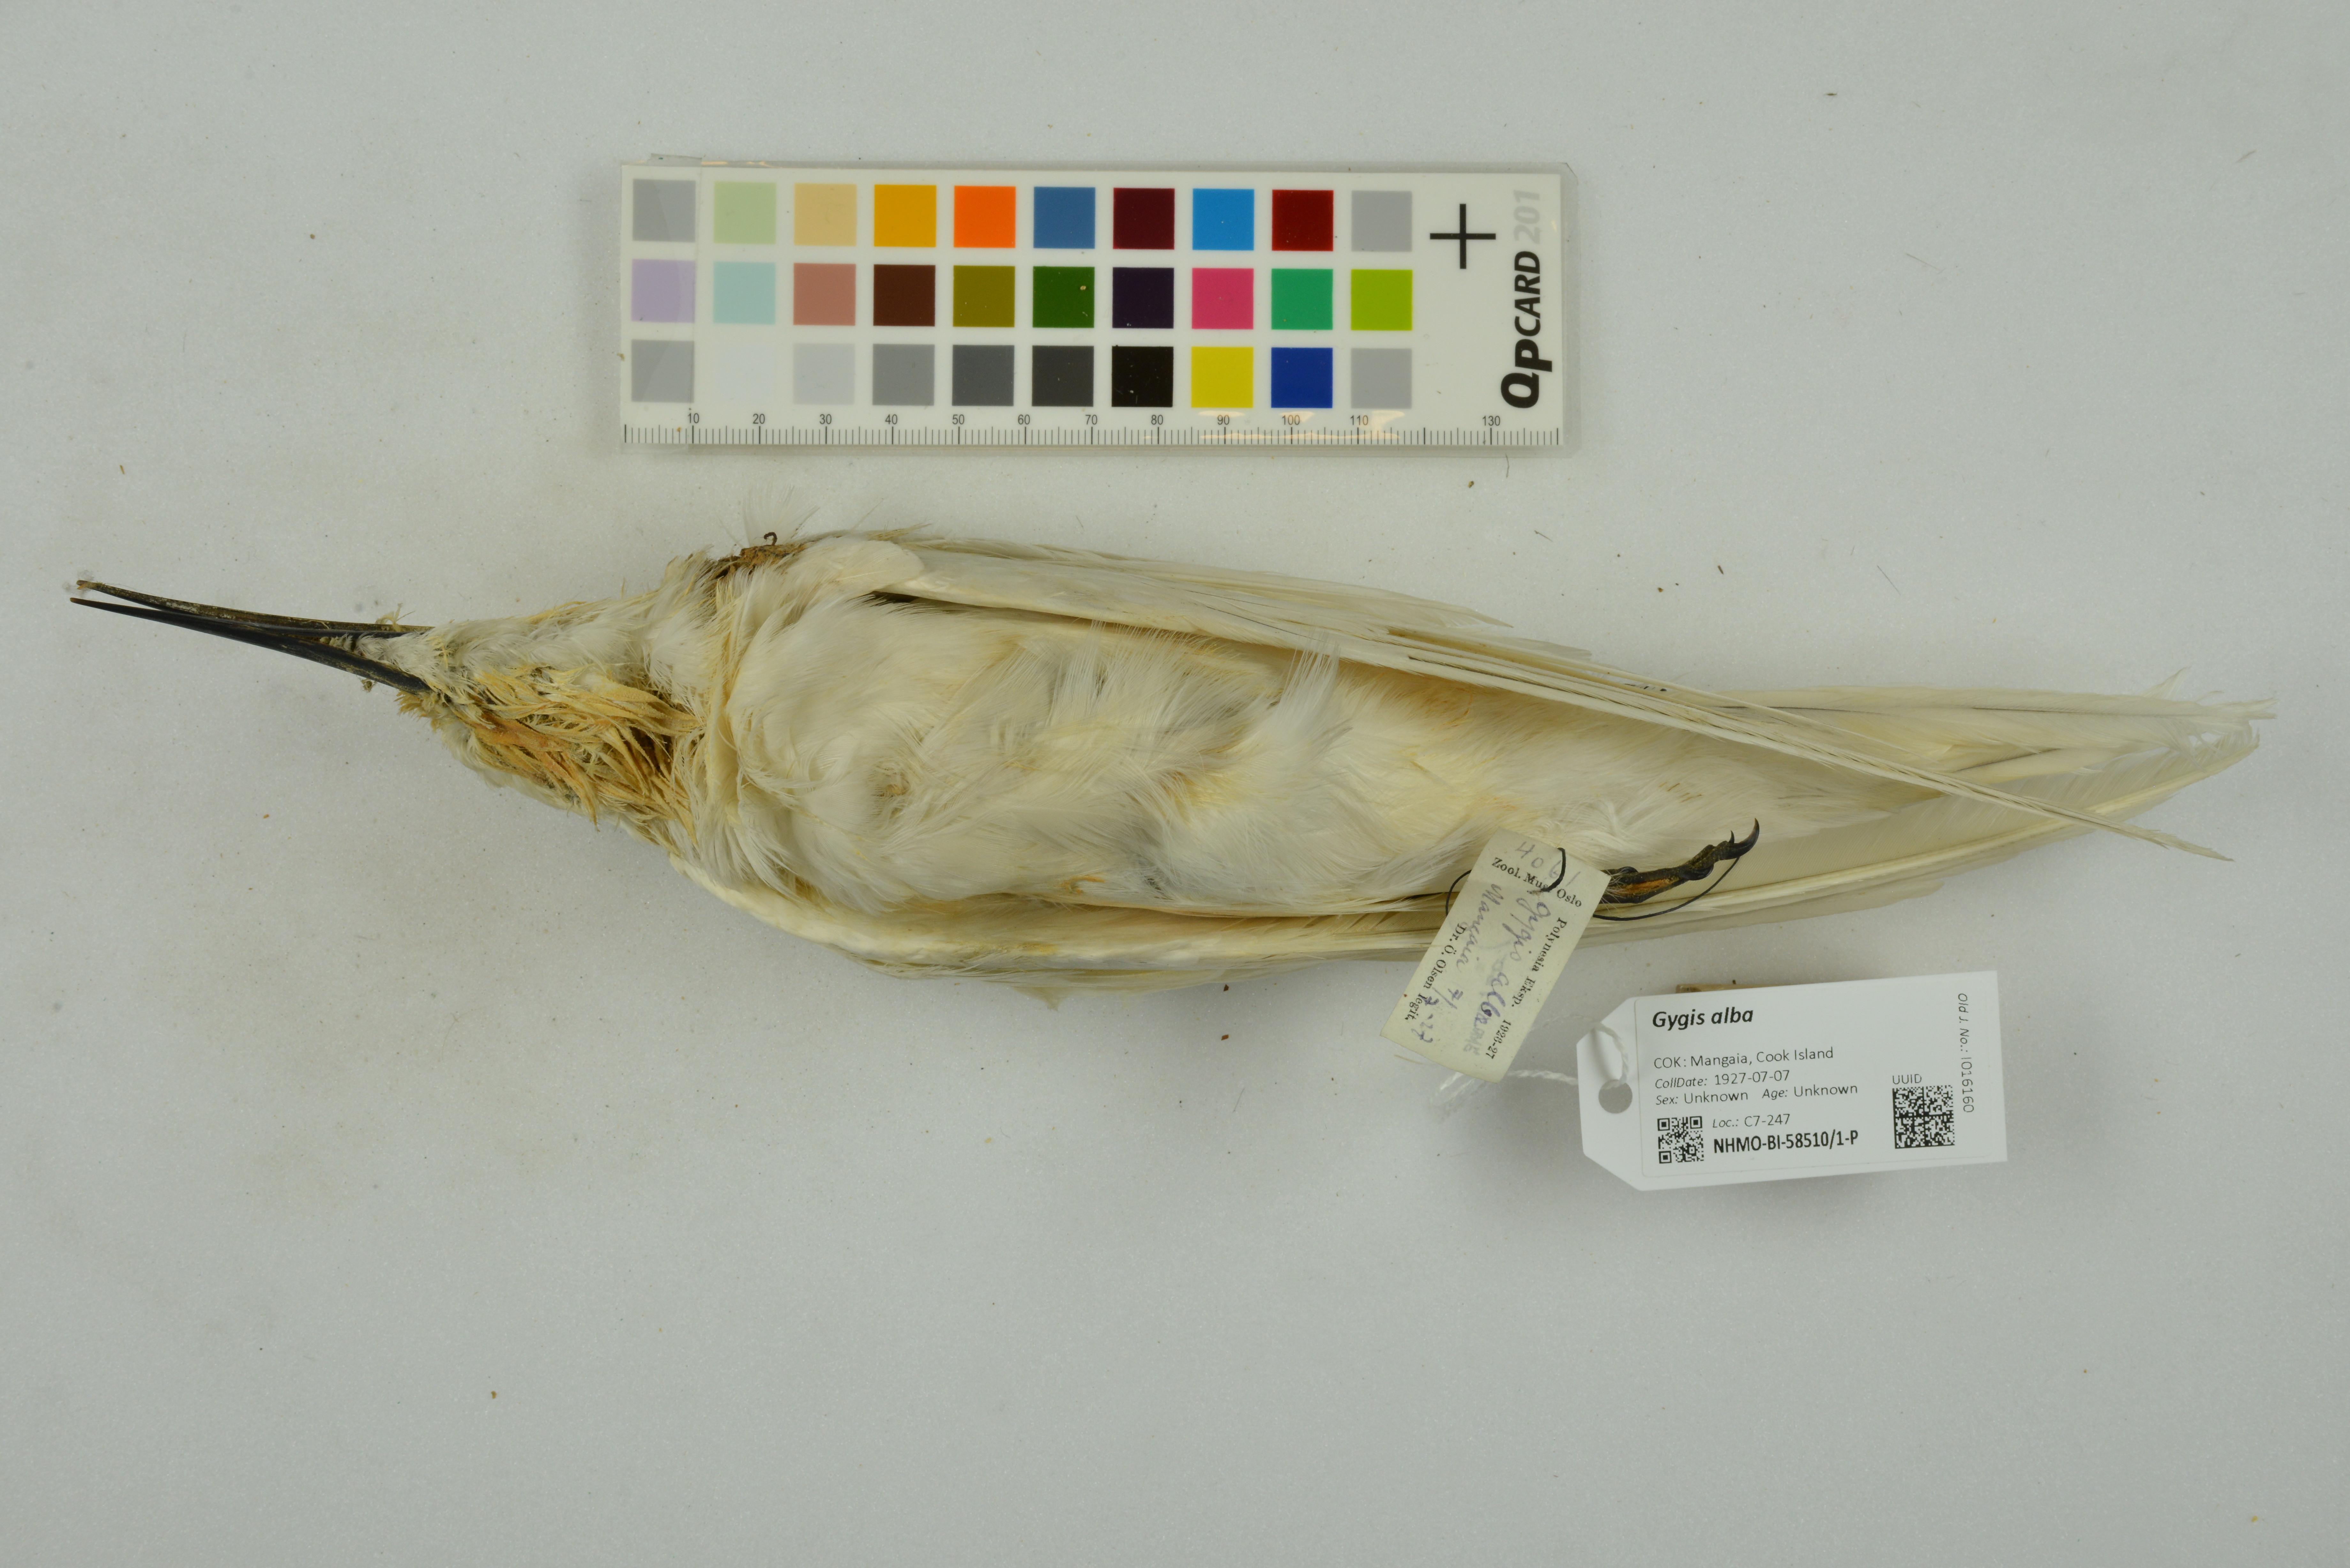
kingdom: Animalia
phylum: Chordata
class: Aves
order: Charadriiformes
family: Laridae
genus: Gygis
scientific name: Gygis alba
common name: White tern
